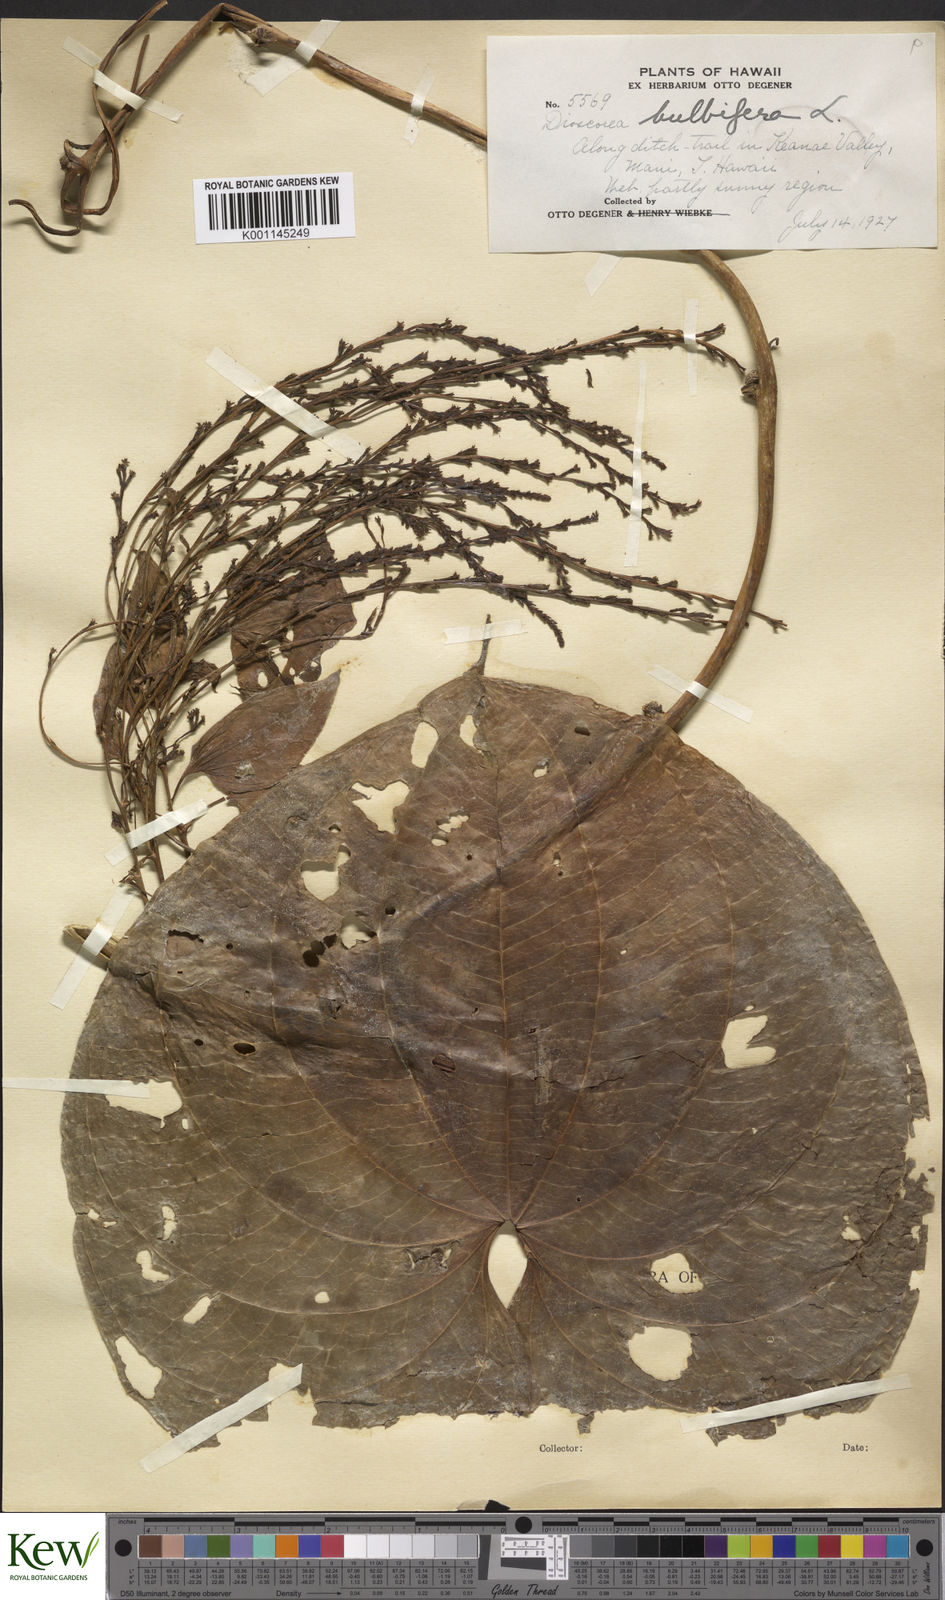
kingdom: Plantae
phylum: Tracheophyta
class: Liliopsida
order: Dioscoreales
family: Dioscoreaceae
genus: Dioscorea
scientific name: Dioscorea bulbifera
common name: Air yam
